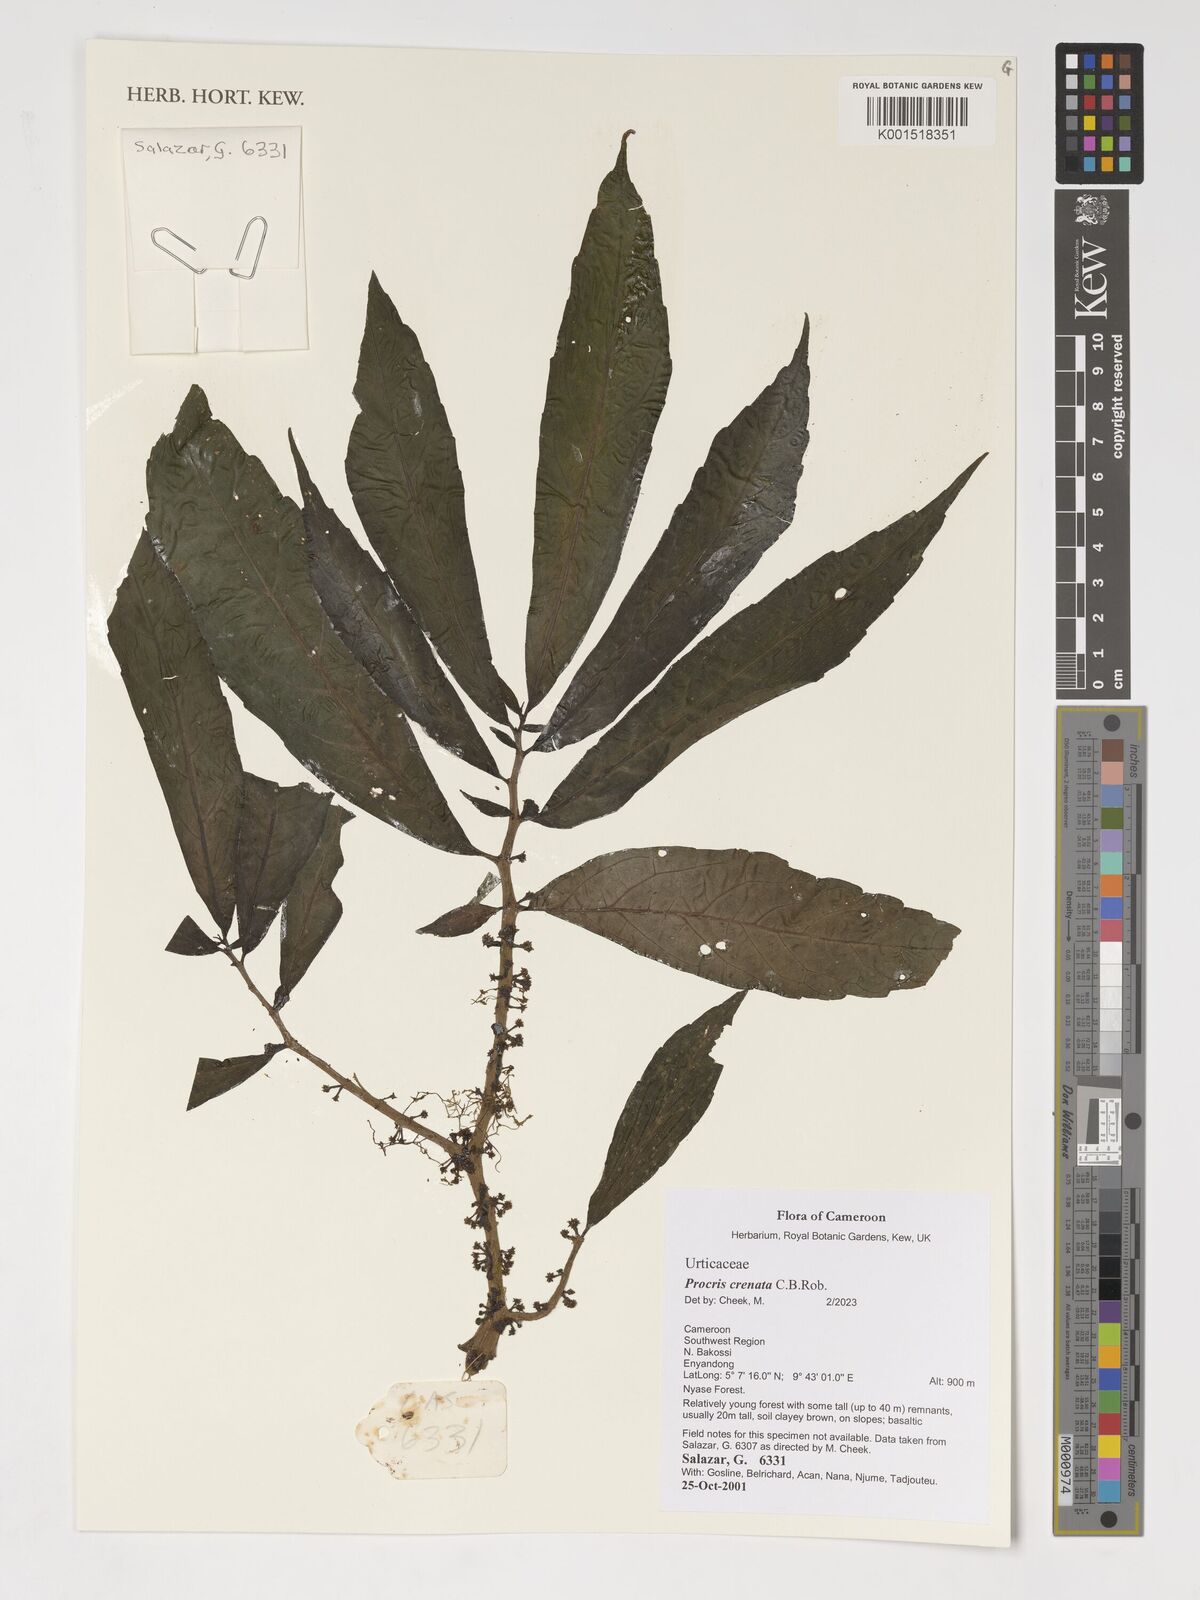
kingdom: Plantae
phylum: Tracheophyta
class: Magnoliopsida
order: Rosales
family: Urticaceae
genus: Procris
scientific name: Procris crenata
